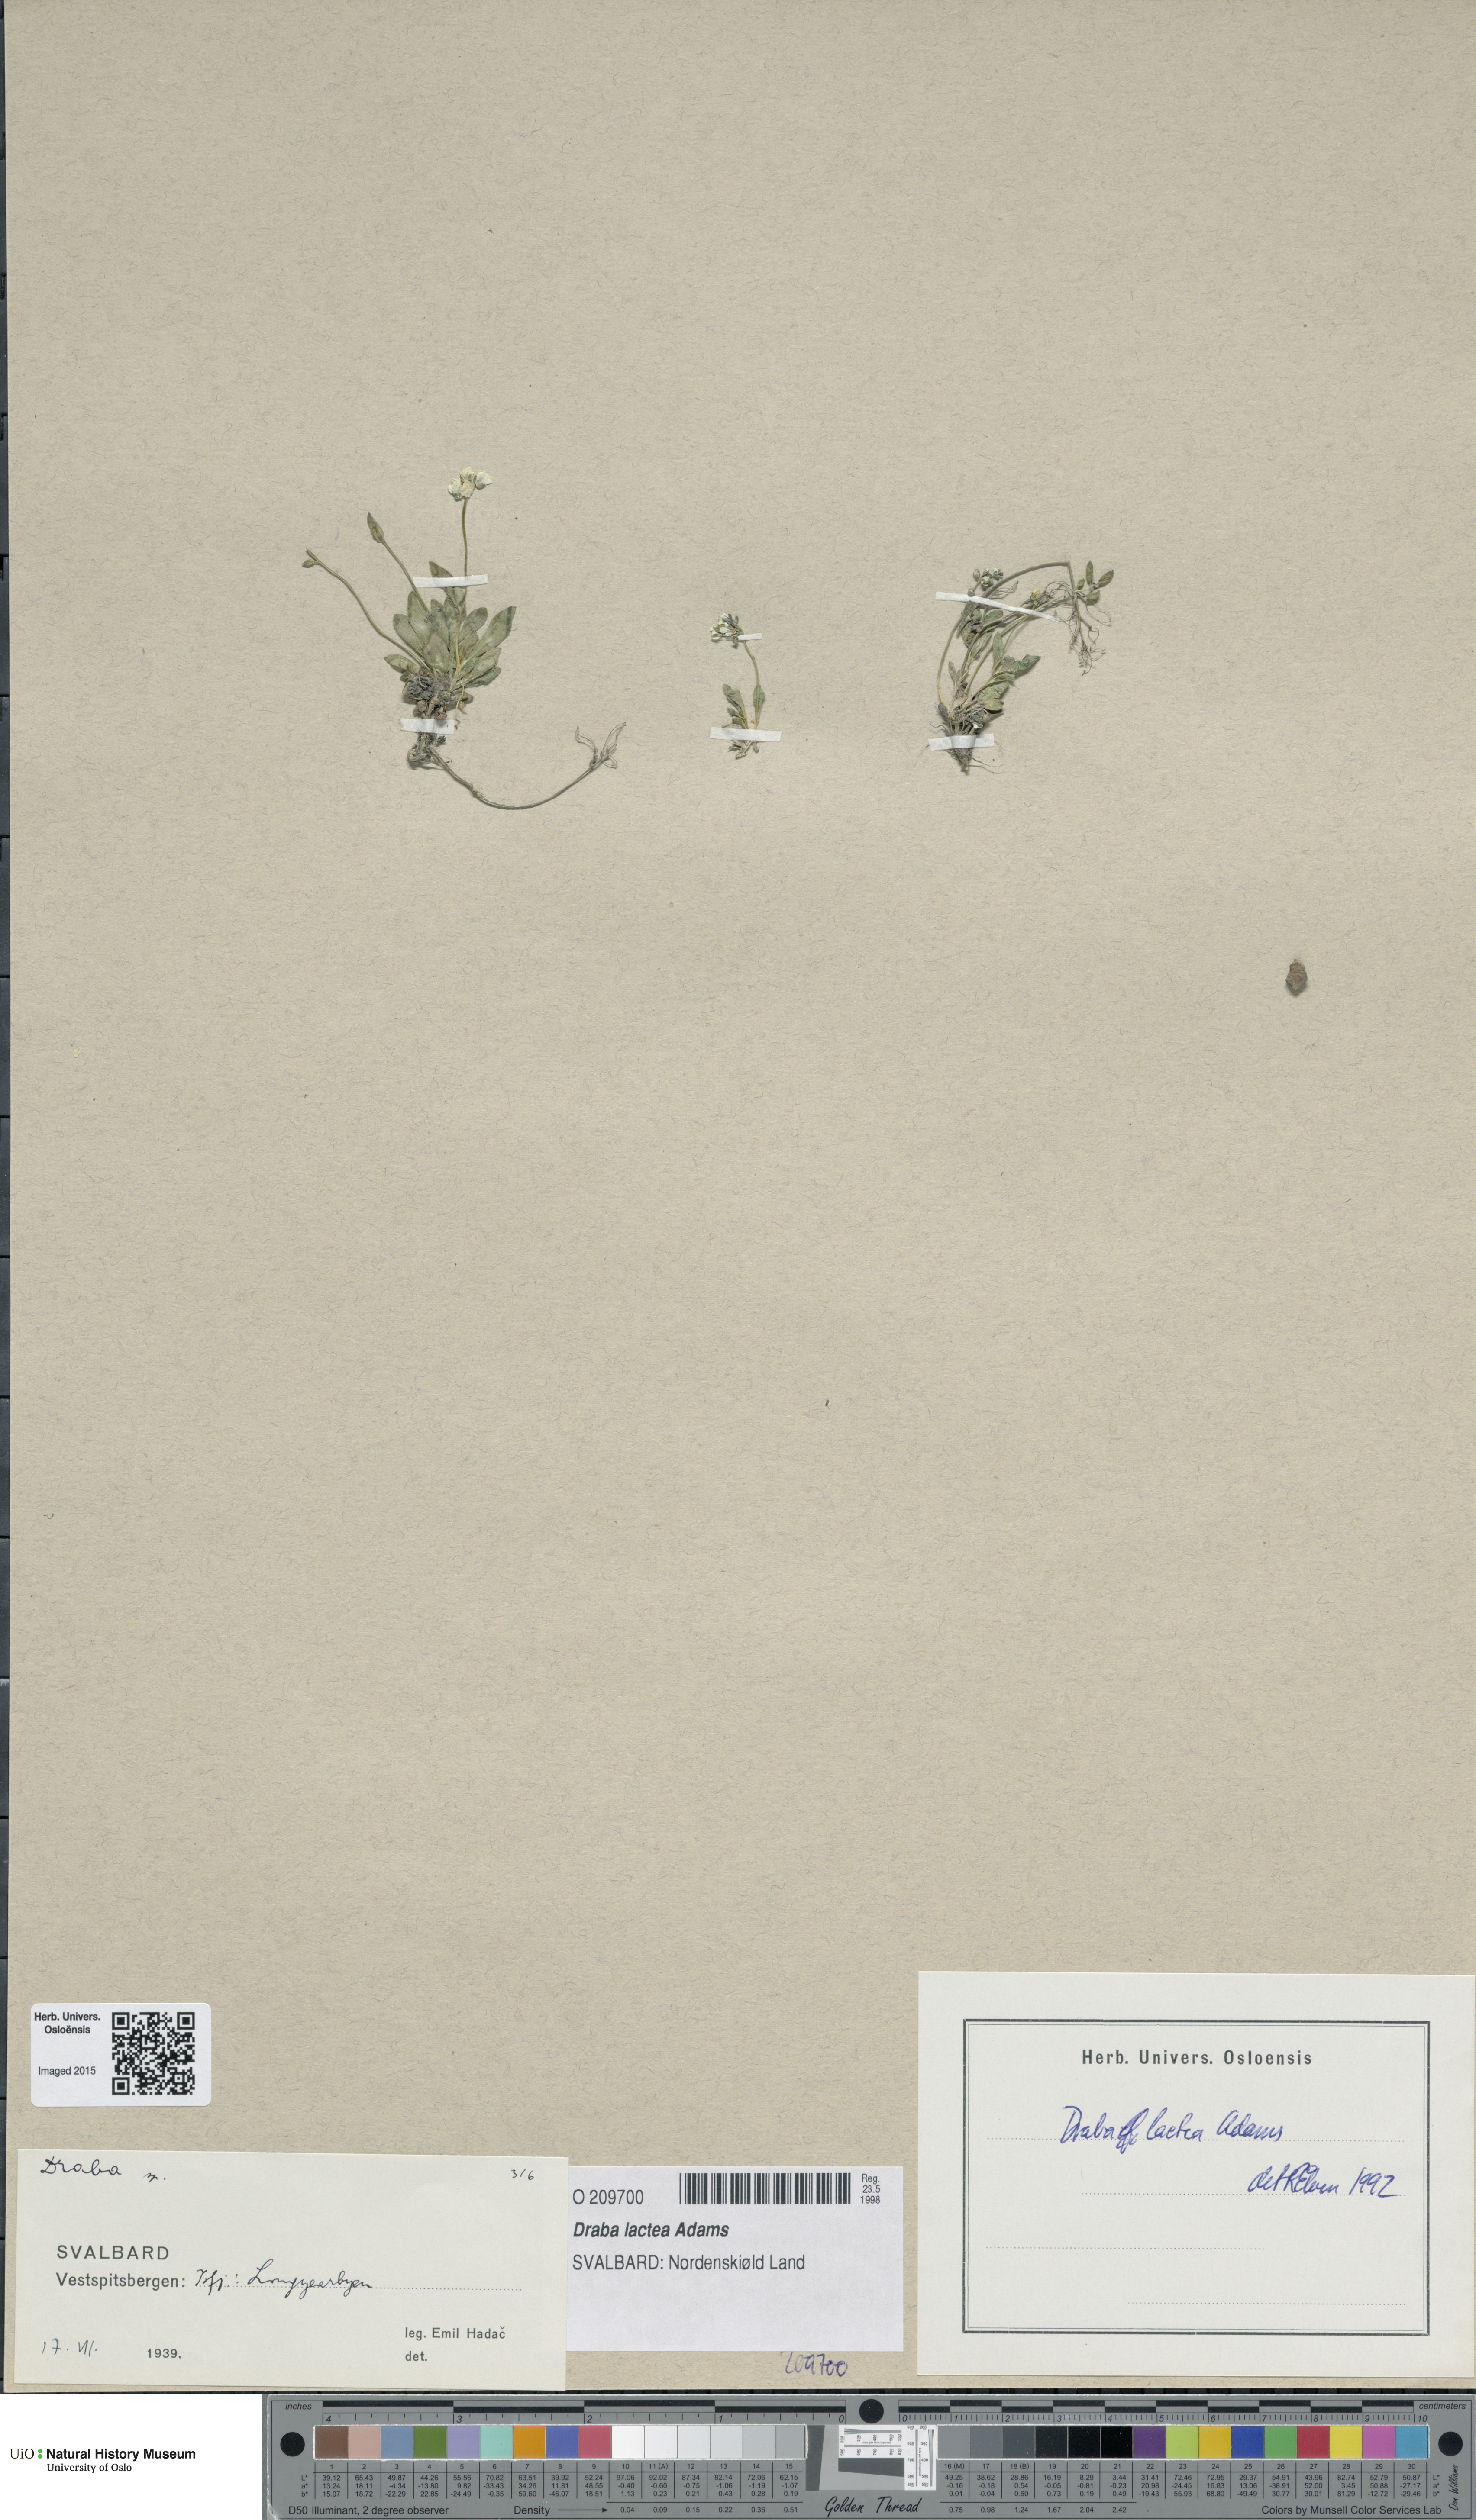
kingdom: Plantae
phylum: Tracheophyta
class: Magnoliopsida
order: Brassicales
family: Brassicaceae
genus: Draba
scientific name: Draba lactea
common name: Milky draba
